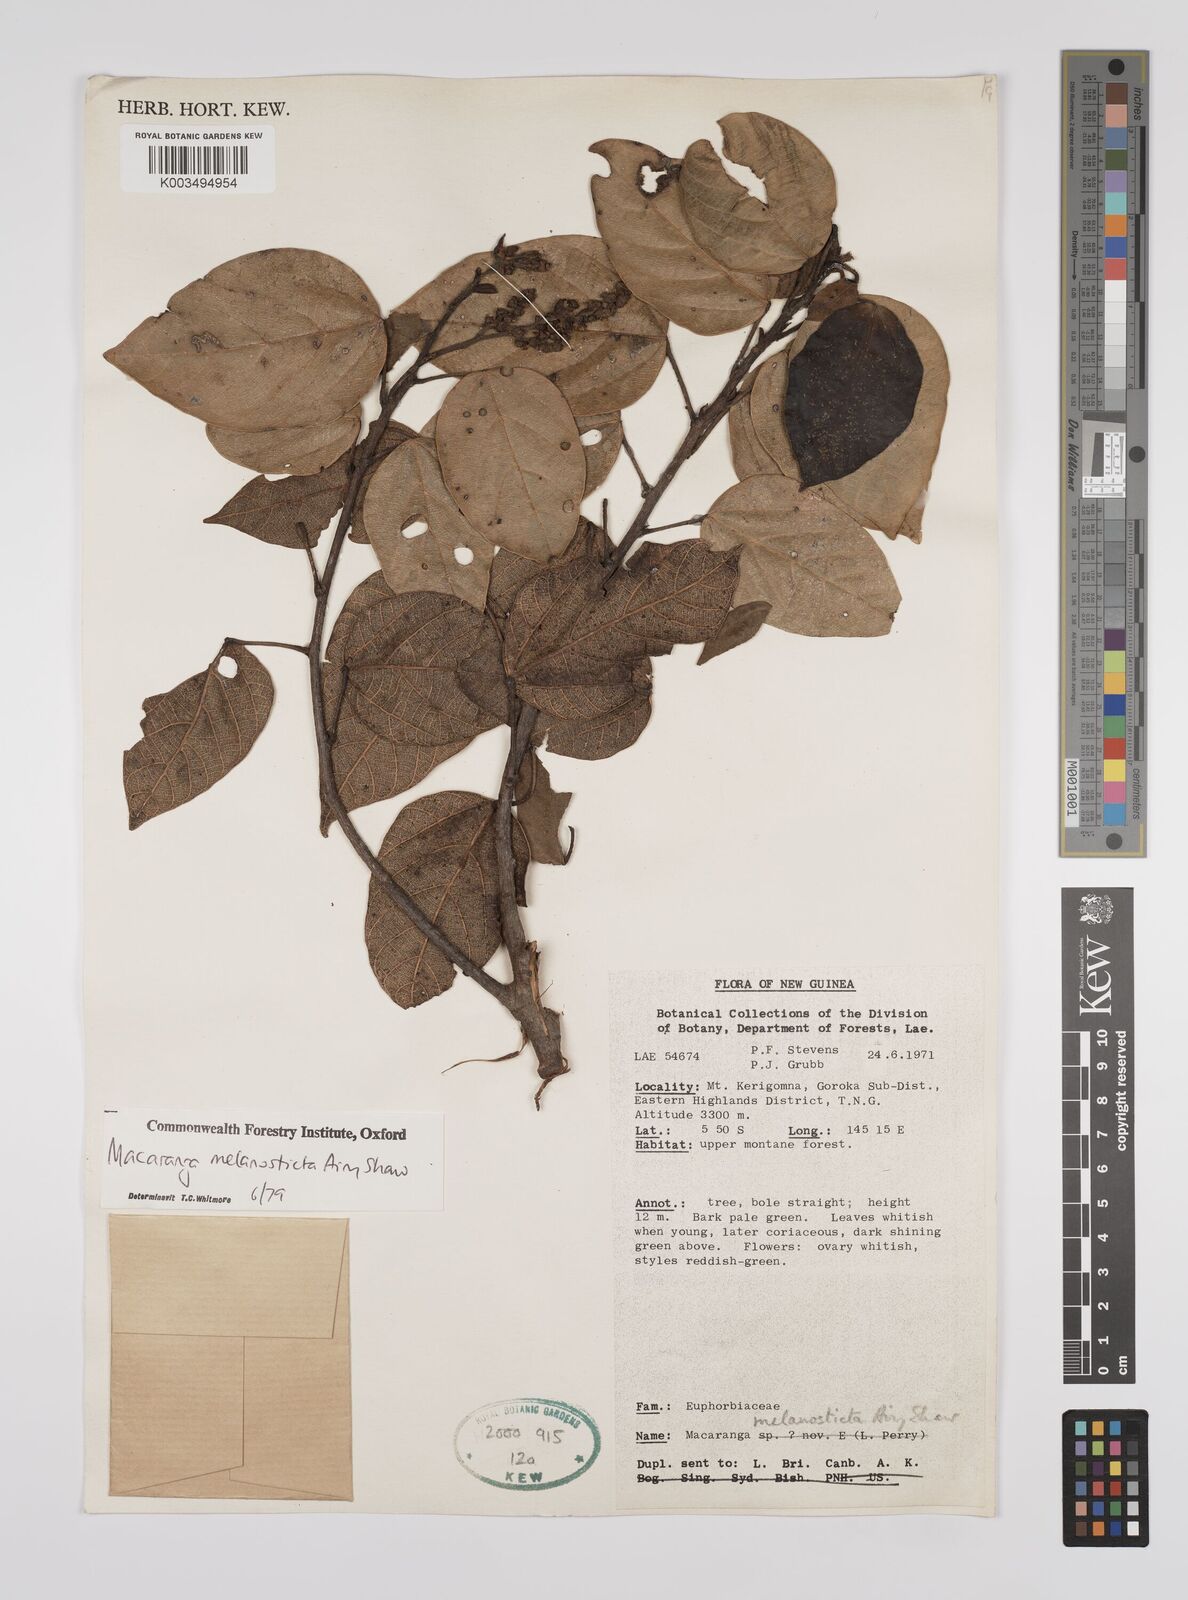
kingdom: Plantae
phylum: Tracheophyta
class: Magnoliopsida
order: Malpighiales
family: Euphorbiaceae
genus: Macaranga
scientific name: Macaranga melanosticta
